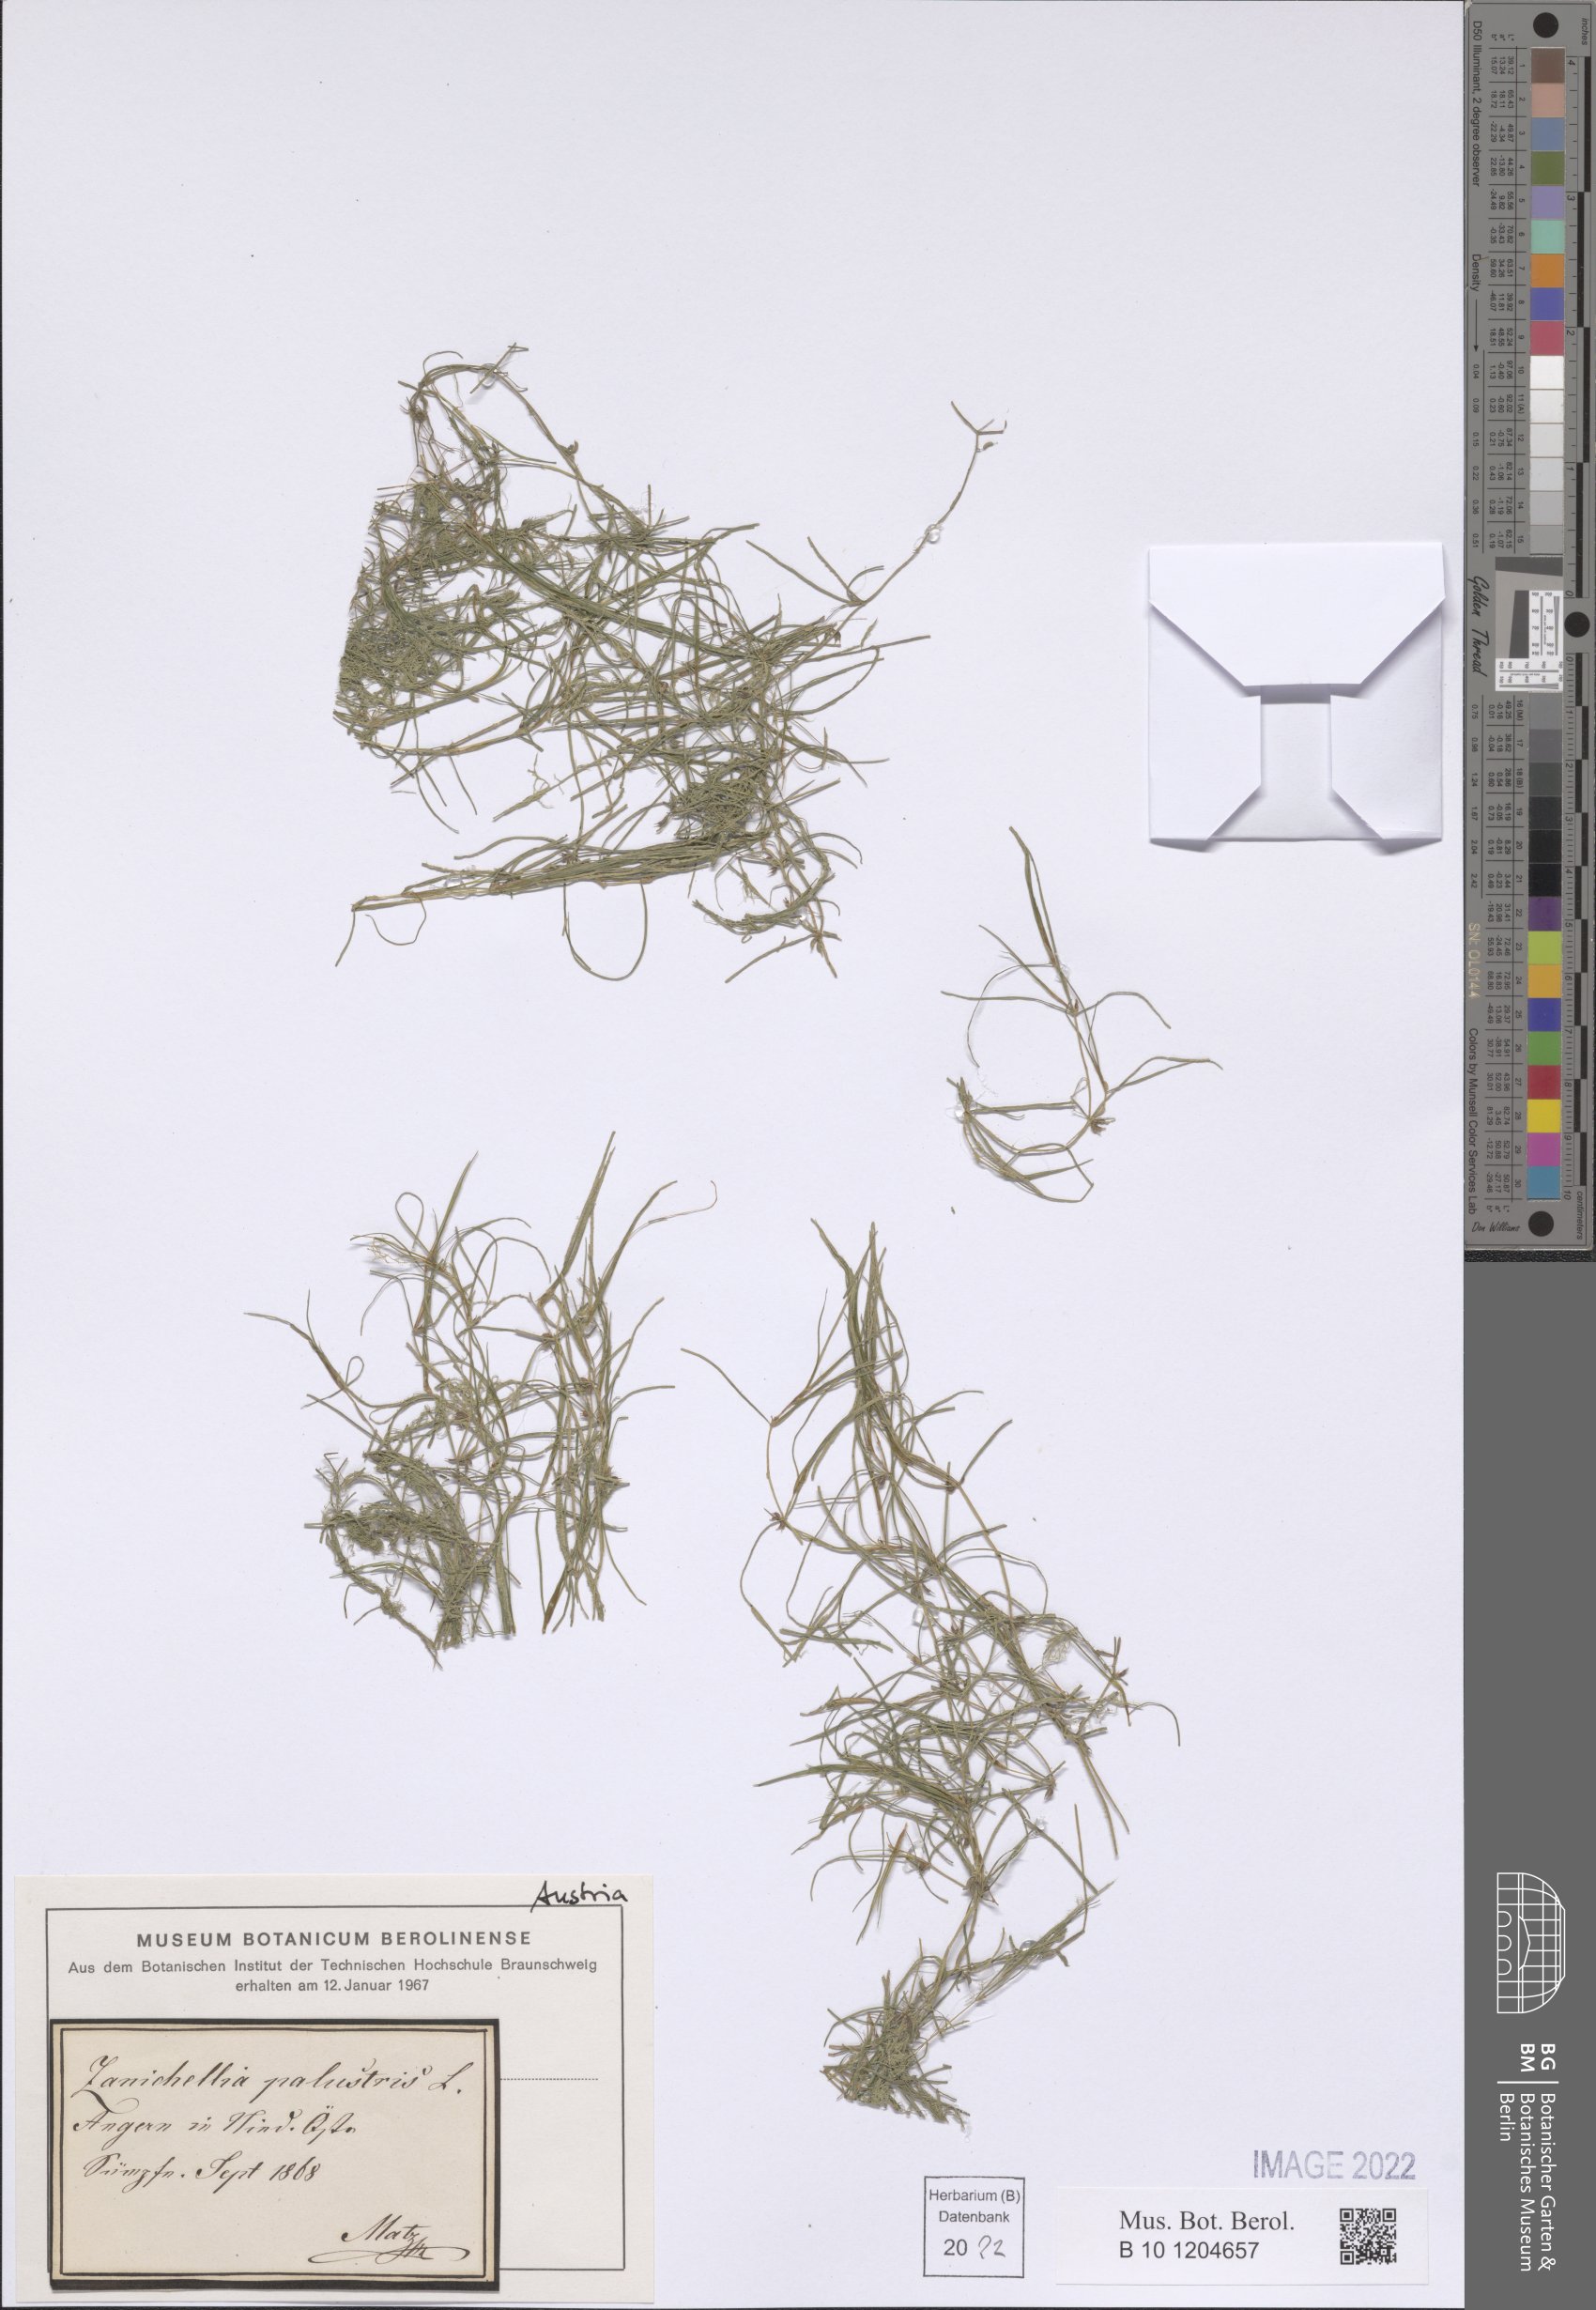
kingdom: Plantae
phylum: Tracheophyta
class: Liliopsida
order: Alismatales
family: Potamogetonaceae
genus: Zannichellia
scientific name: Zannichellia palustris
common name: Horned pondweed
